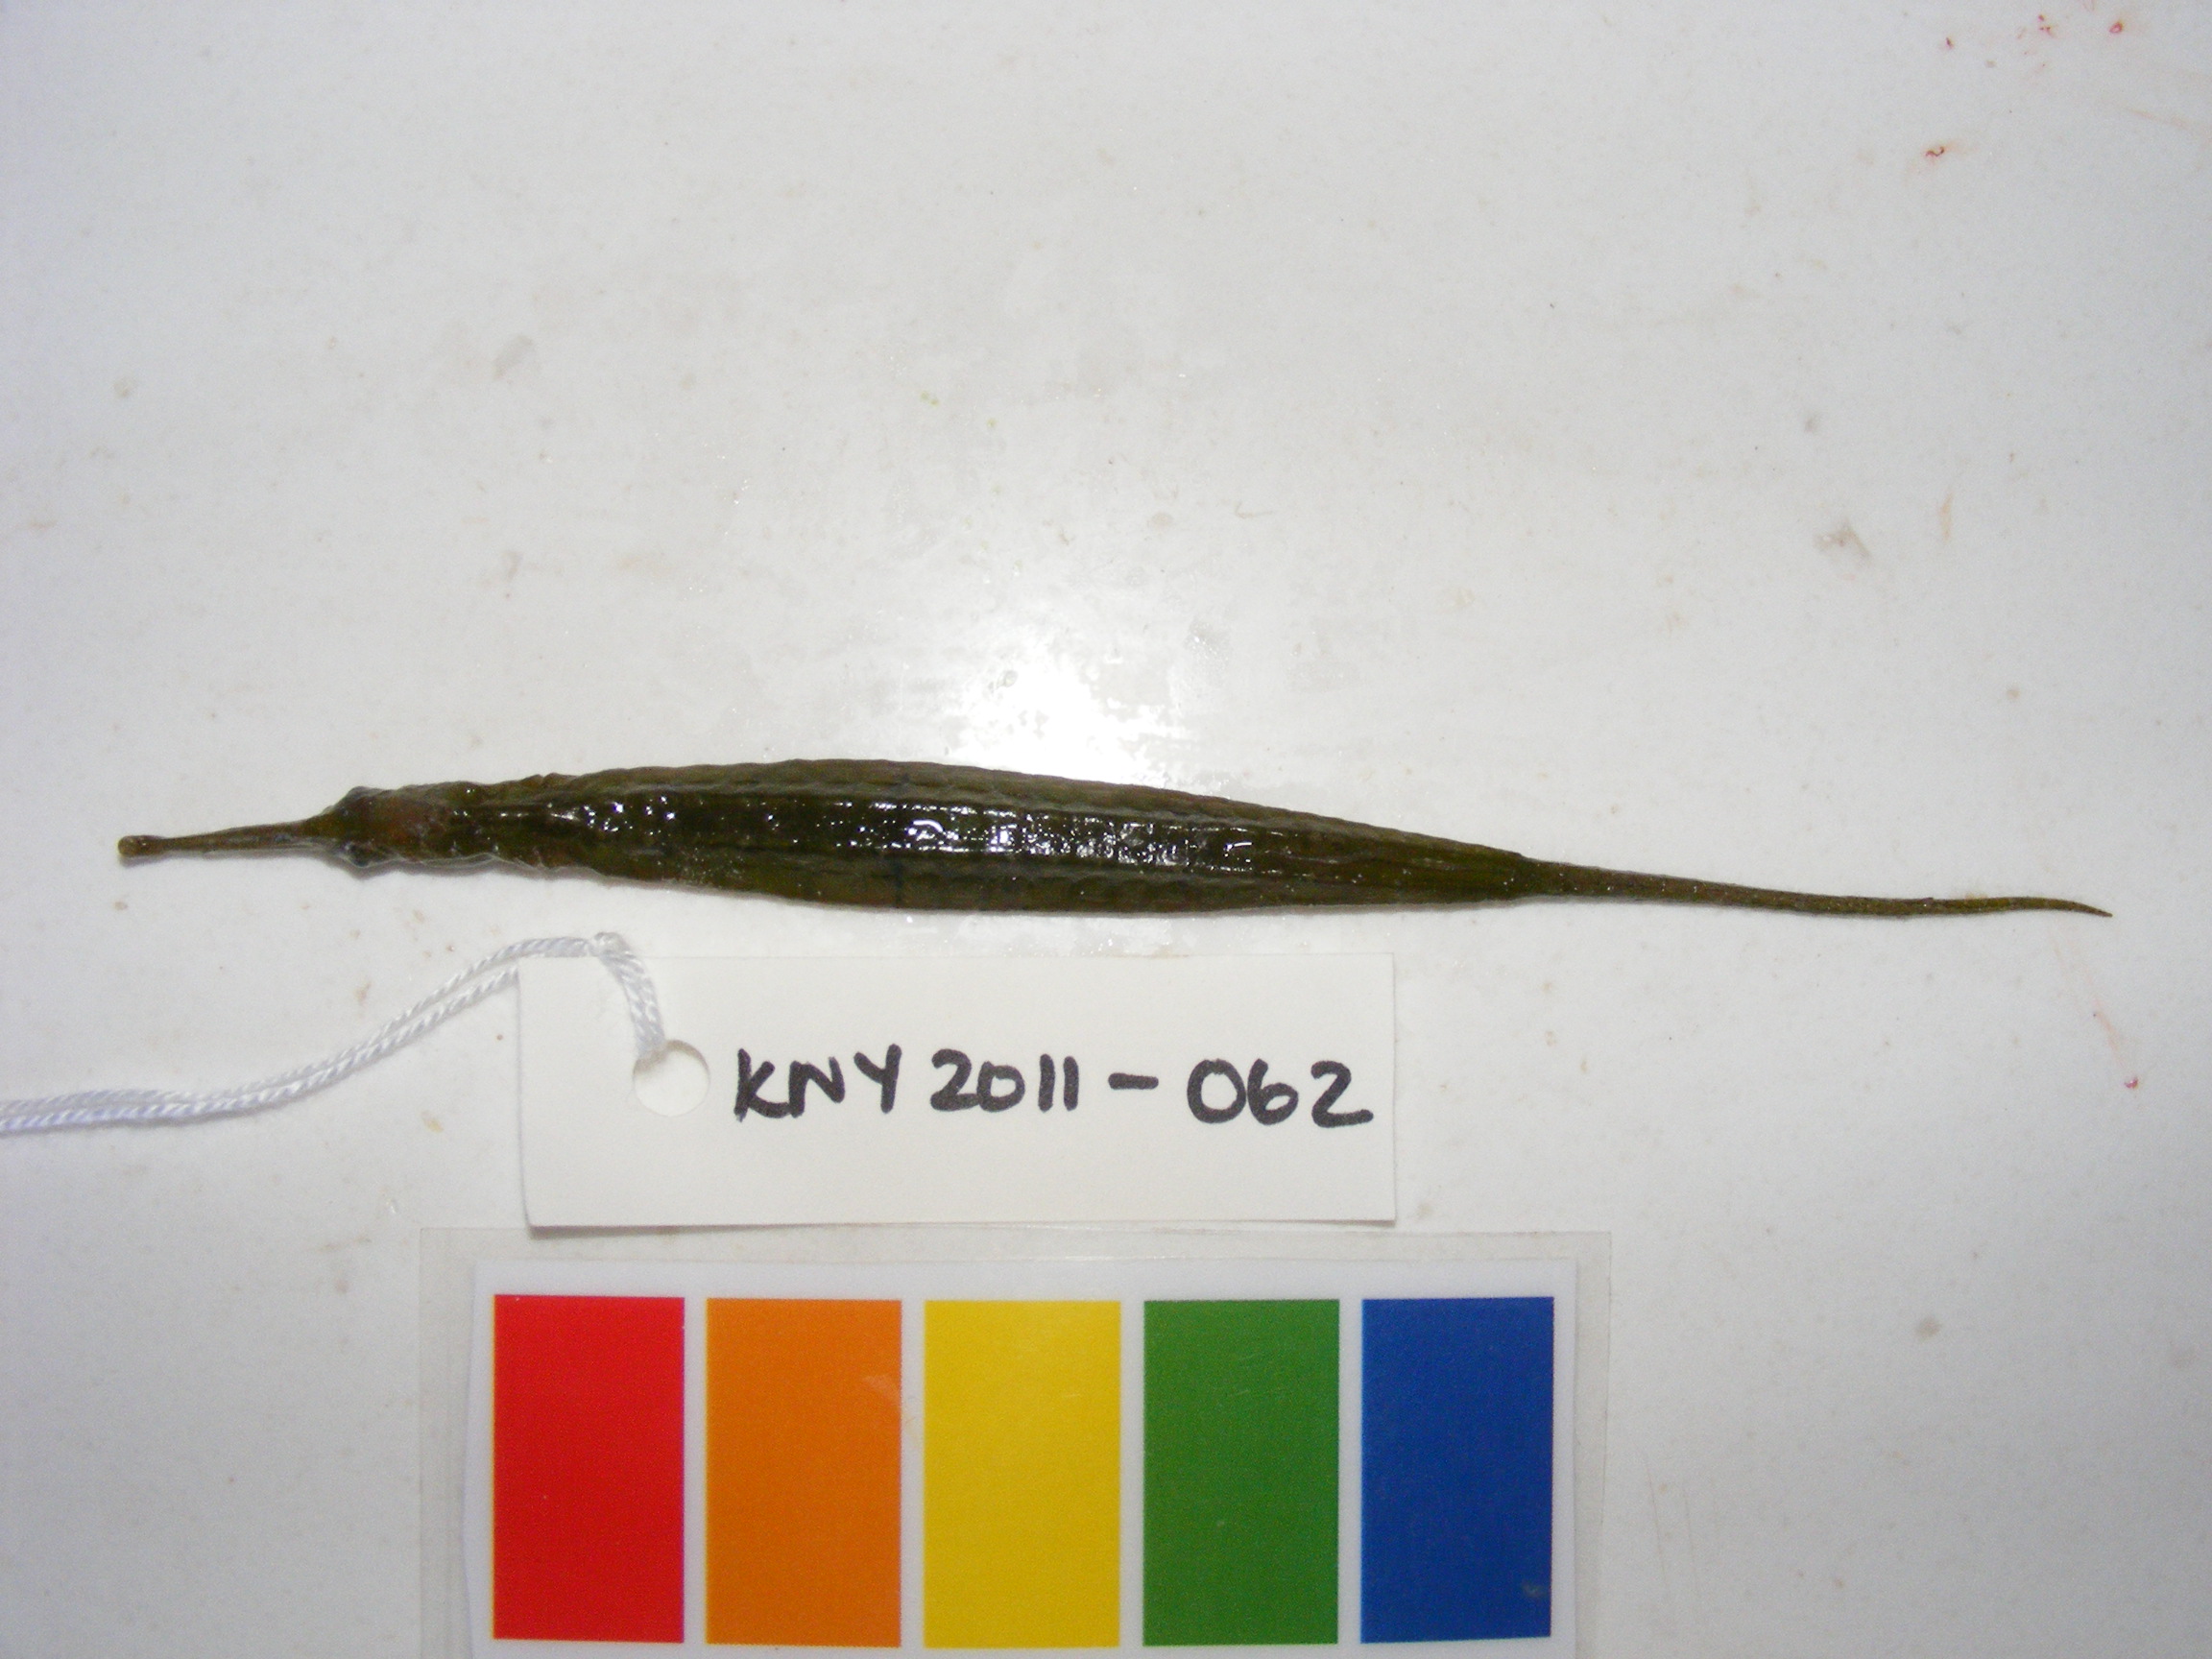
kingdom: Animalia
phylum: Chordata
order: Syngnathiformes
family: Syngnathidae
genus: Syngnathoides
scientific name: Syngnathoides biaculeatus
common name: Alligator pipefish
